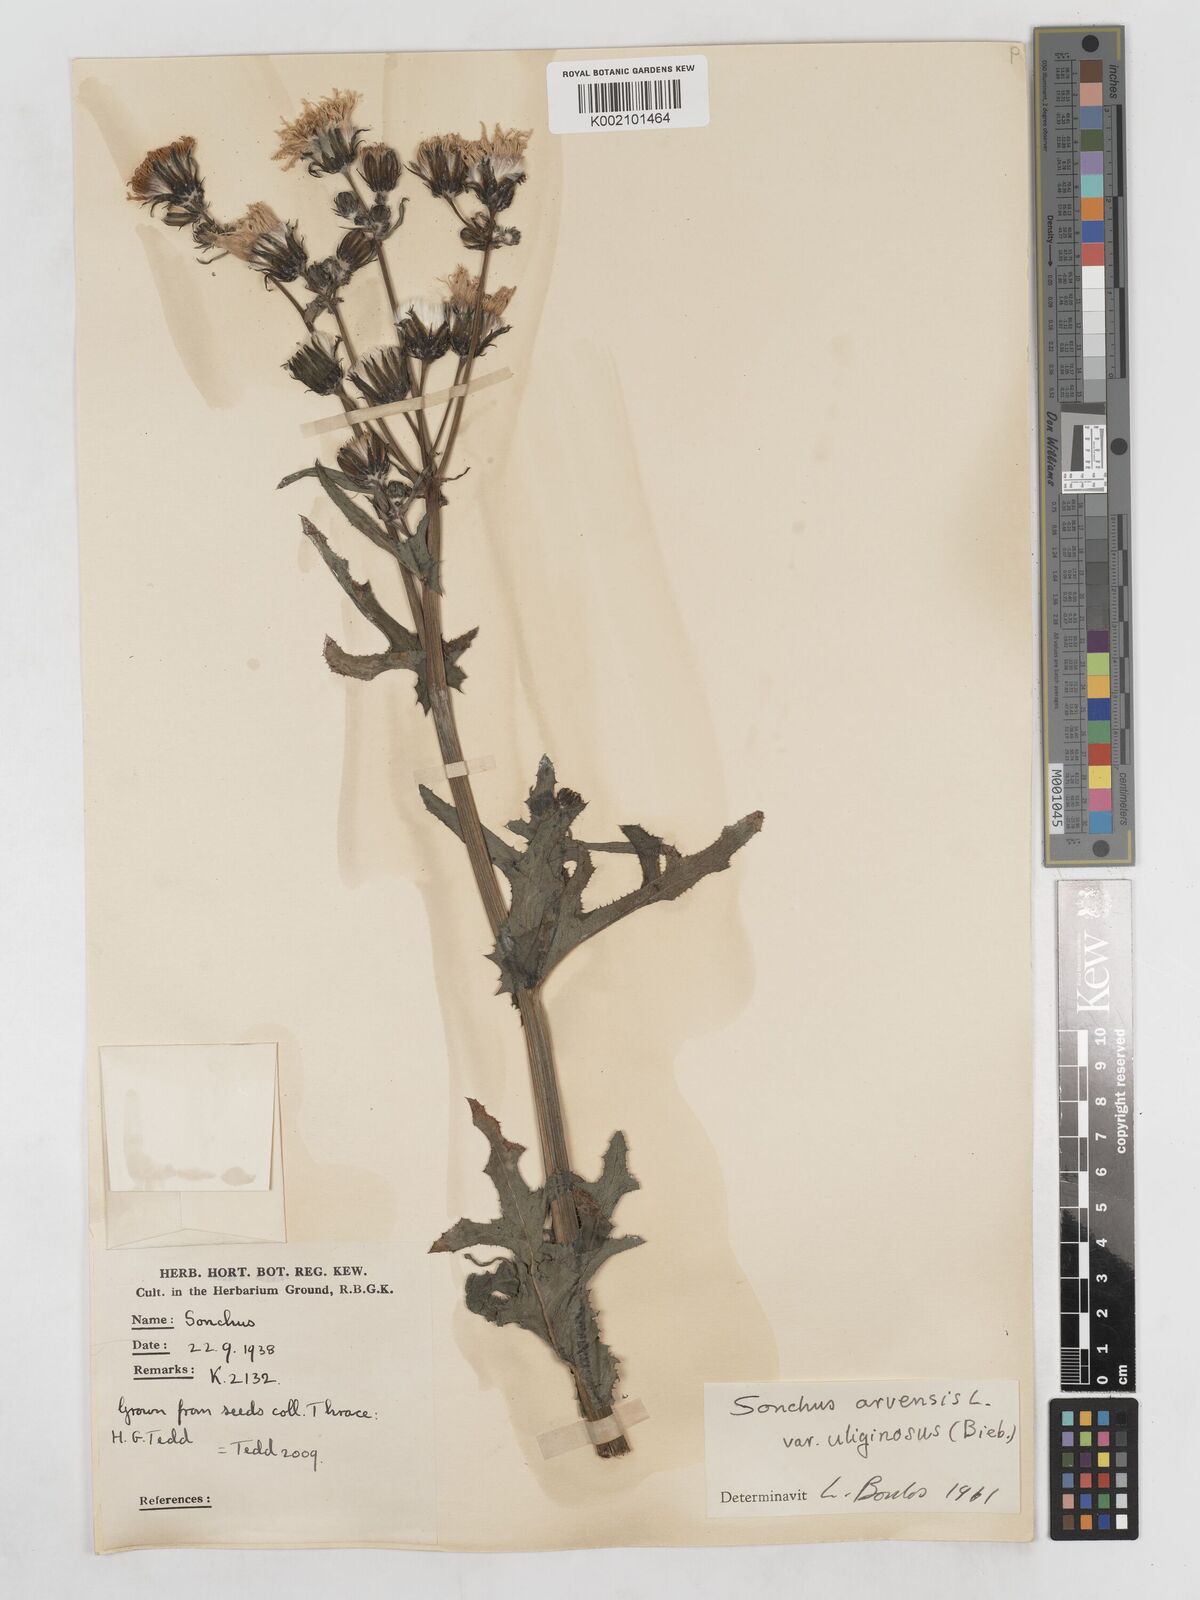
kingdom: Plantae
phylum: Tracheophyta
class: Magnoliopsida
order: Asterales
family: Asteraceae
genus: Sonchus
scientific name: Sonchus arvensis
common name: Perennial sow-thistle
